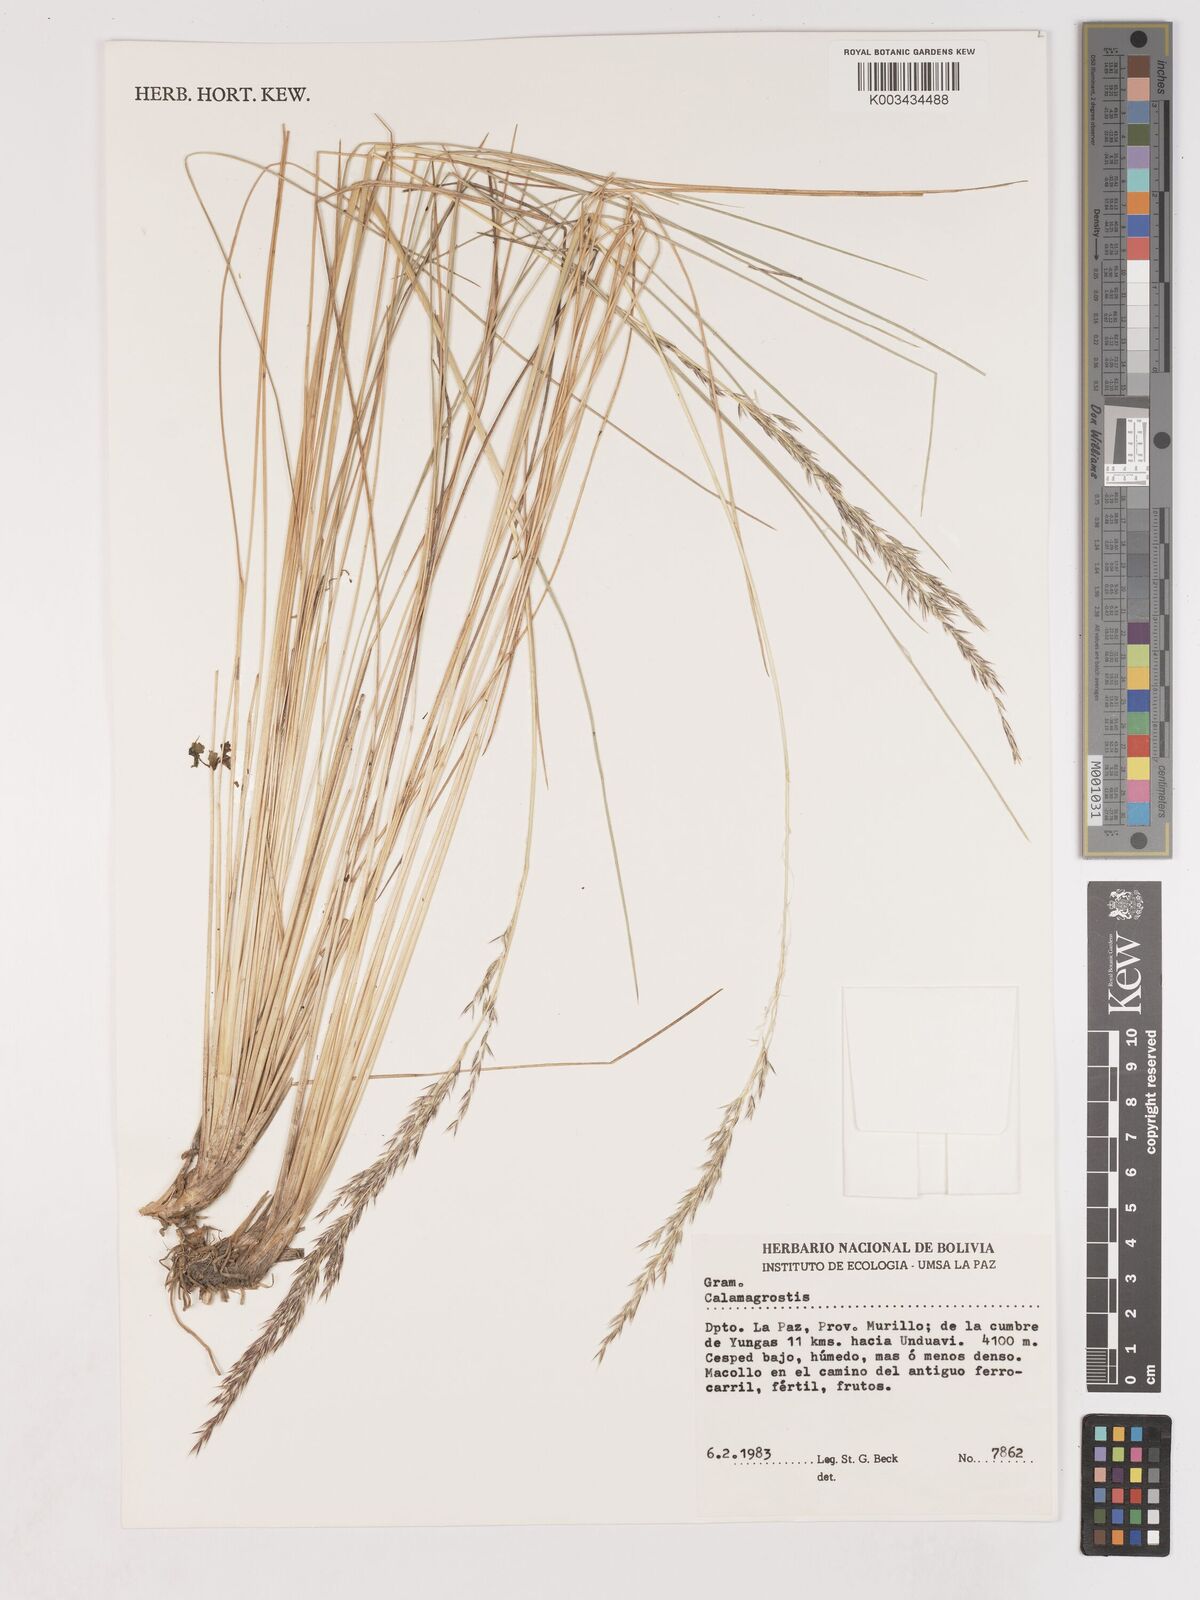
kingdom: Plantae
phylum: Tracheophyta
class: Liliopsida
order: Poales
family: Poaceae
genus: Cinnagrostis
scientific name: Cinnagrostis rigida
